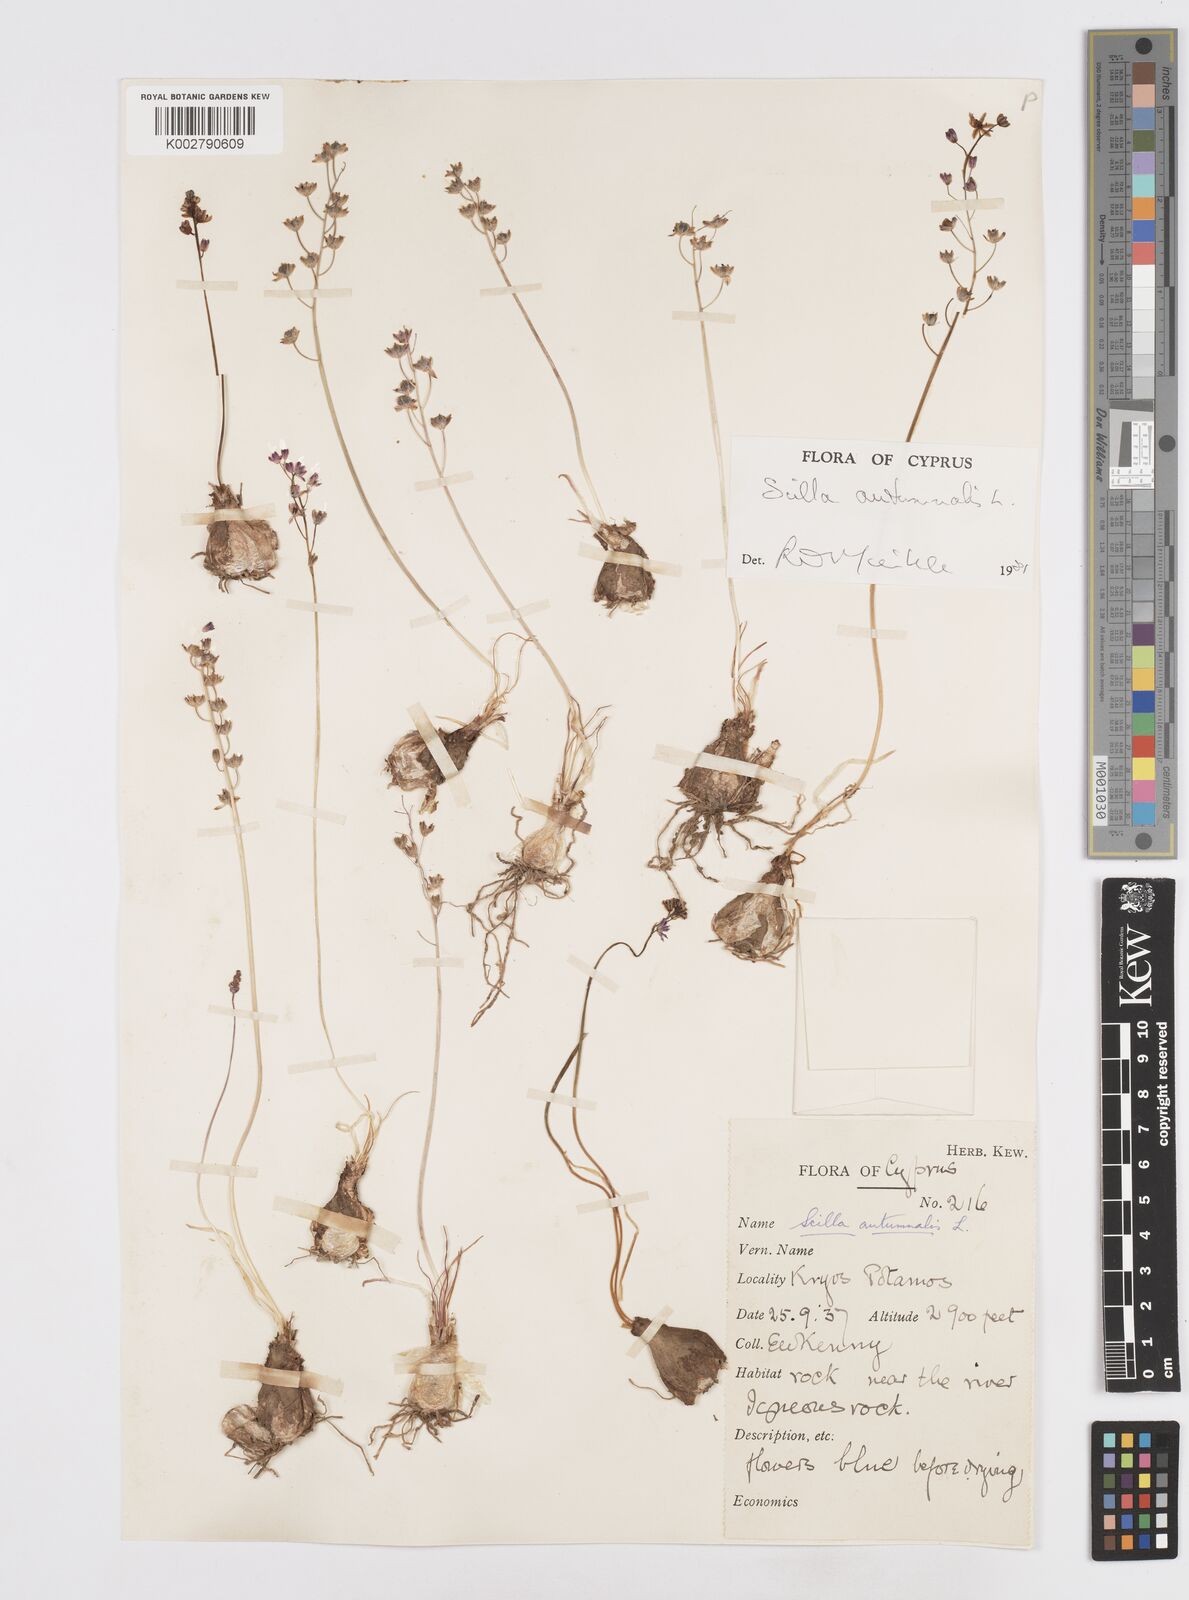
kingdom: Plantae
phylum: Tracheophyta
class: Liliopsida
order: Asparagales
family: Asparagaceae
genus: Prospero
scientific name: Prospero autumnale
